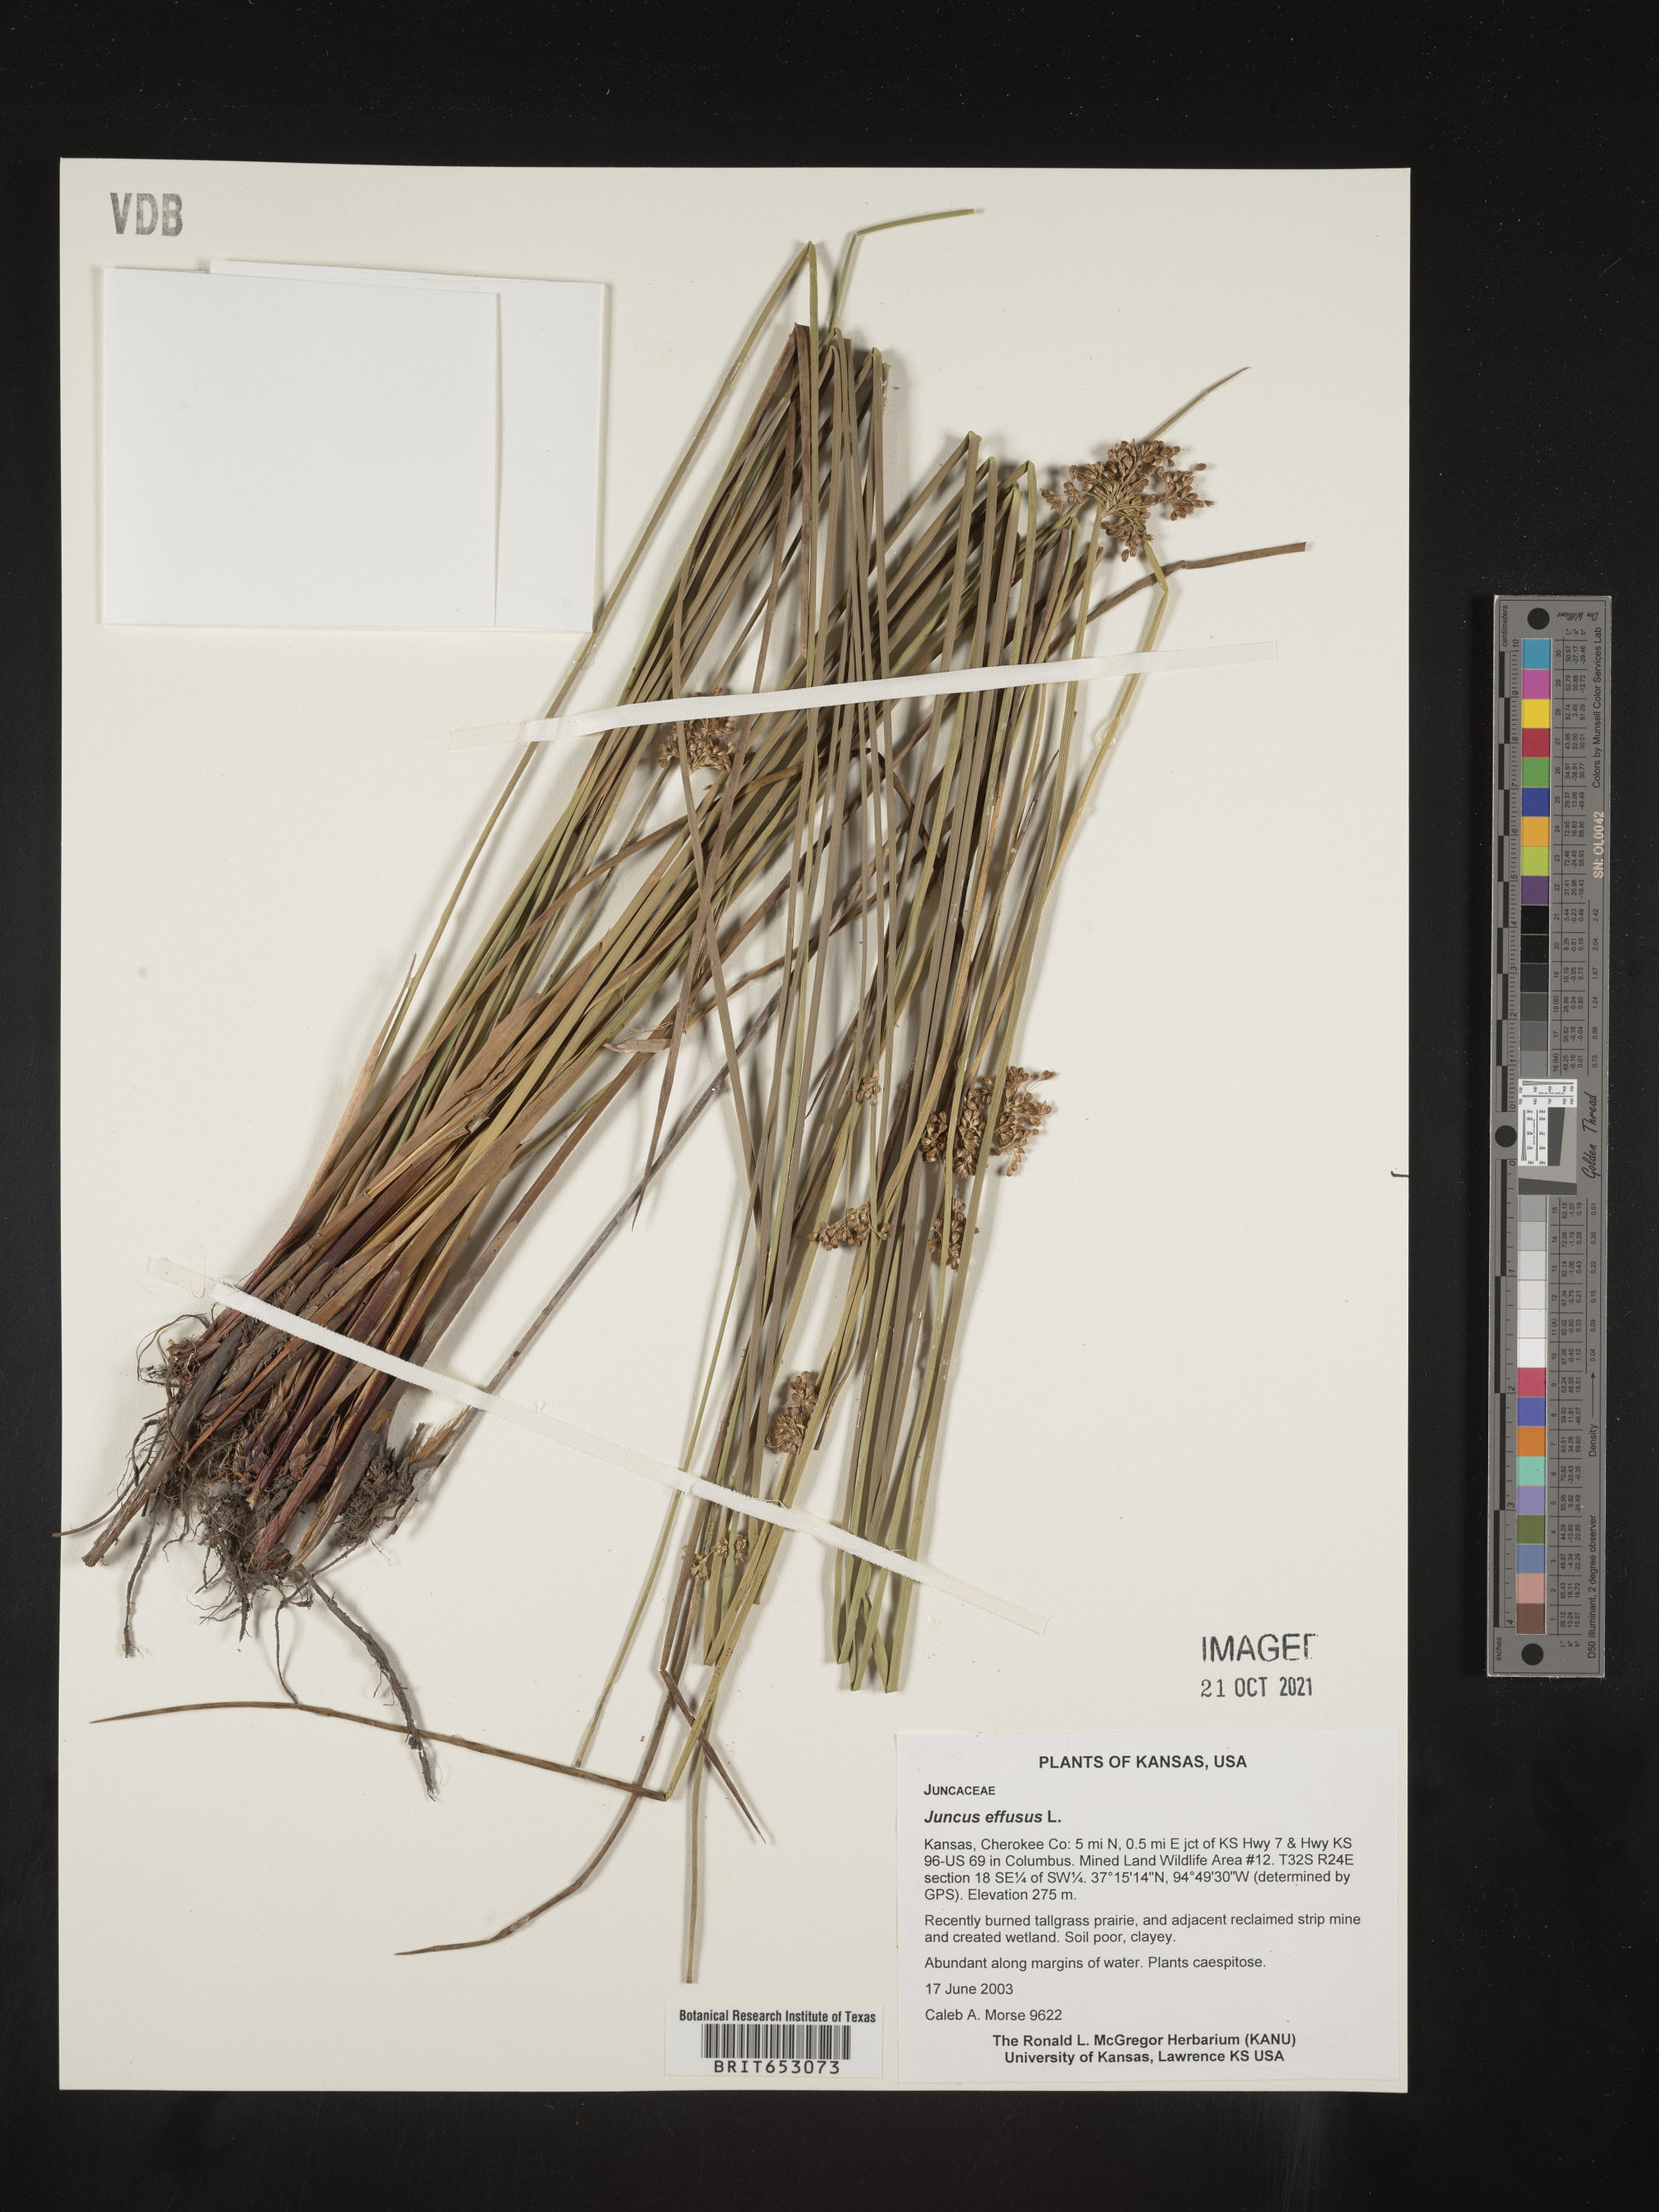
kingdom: Plantae
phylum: Tracheophyta
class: Liliopsida
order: Poales
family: Juncaceae
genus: Juncus
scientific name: Juncus effusus
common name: Soft rush
